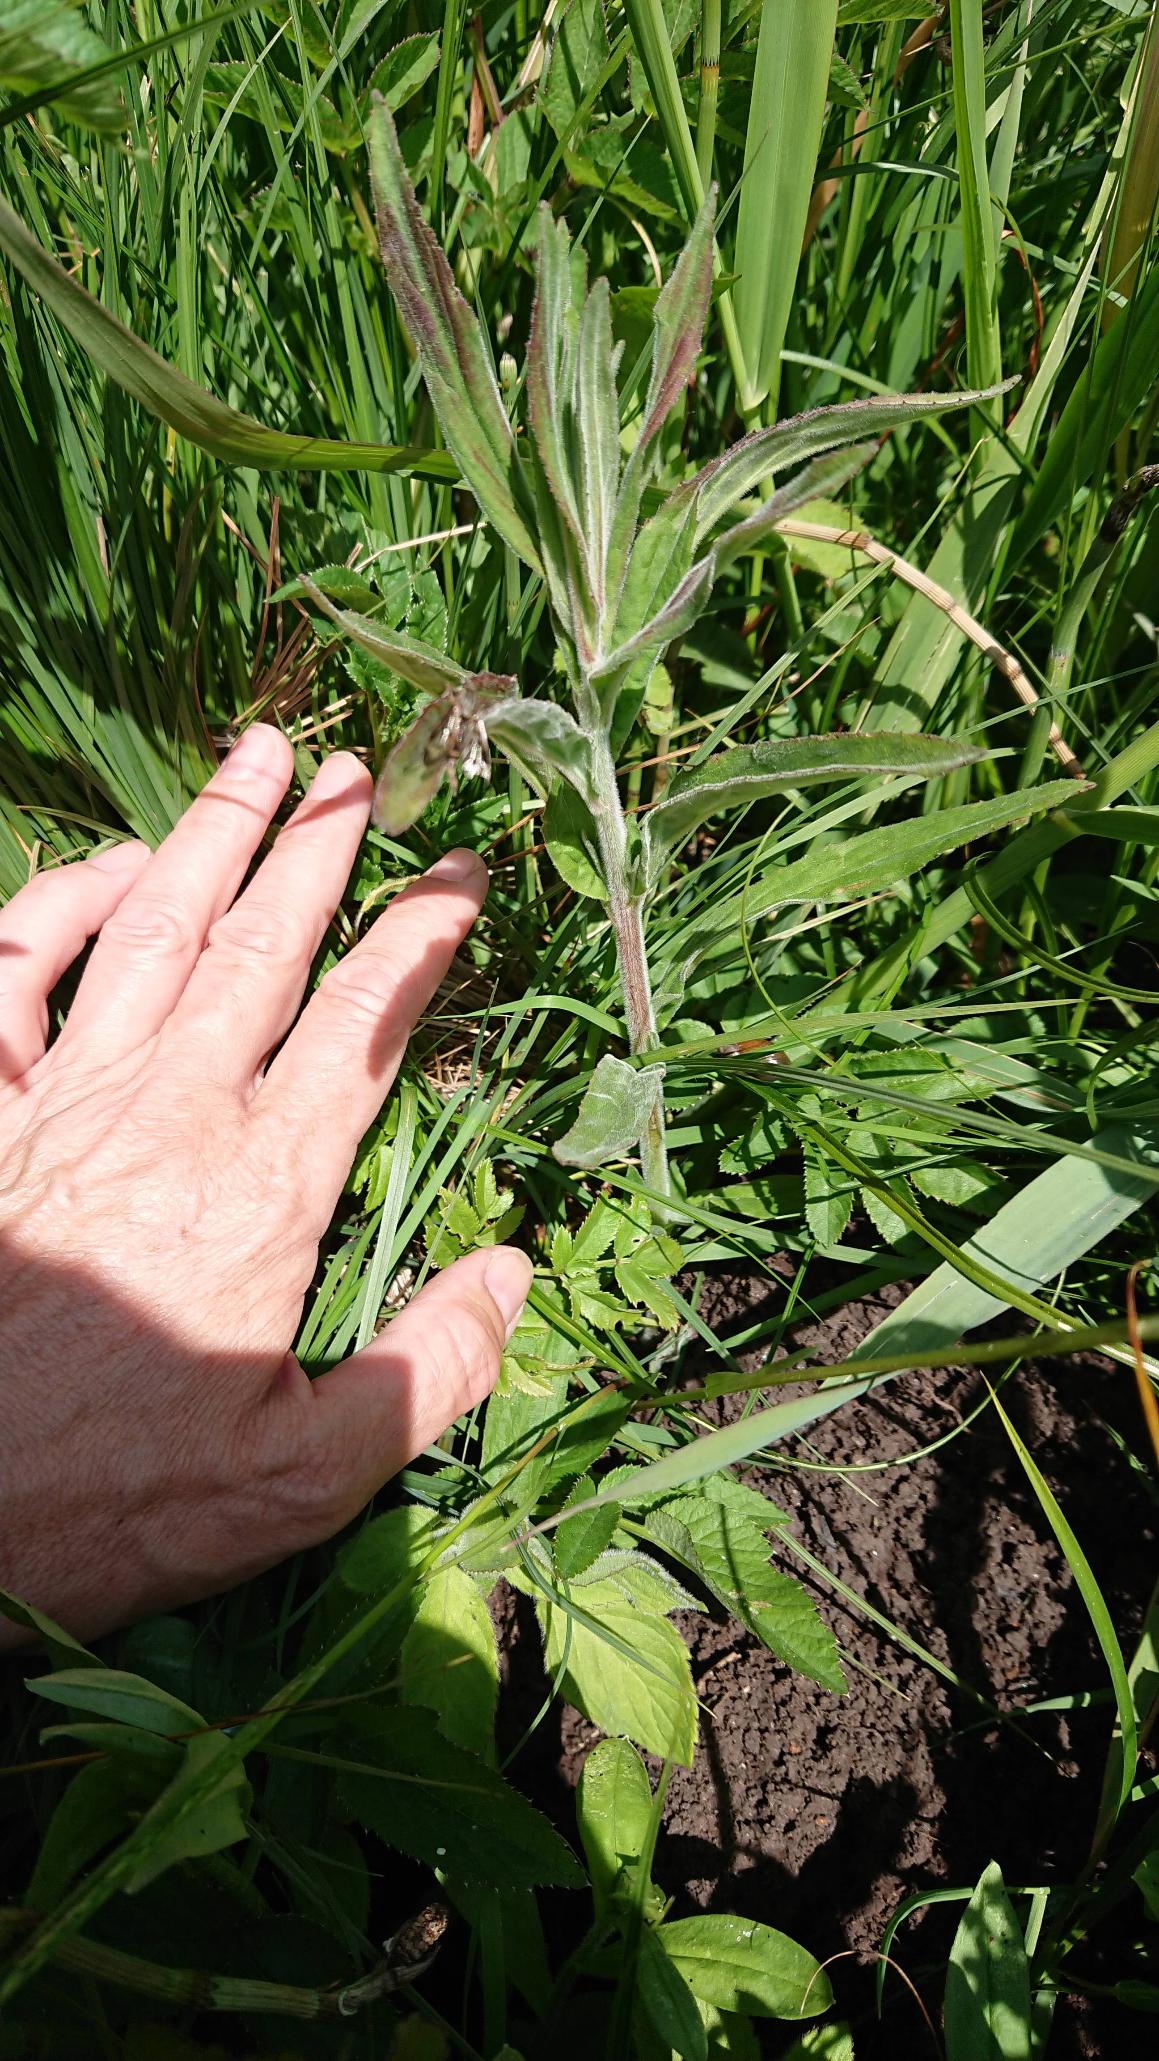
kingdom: Plantae
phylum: Tracheophyta
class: Magnoliopsida
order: Myrtales
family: Onagraceae
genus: Epilobium
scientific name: Epilobium parviflorum
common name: Dunet dueurt
